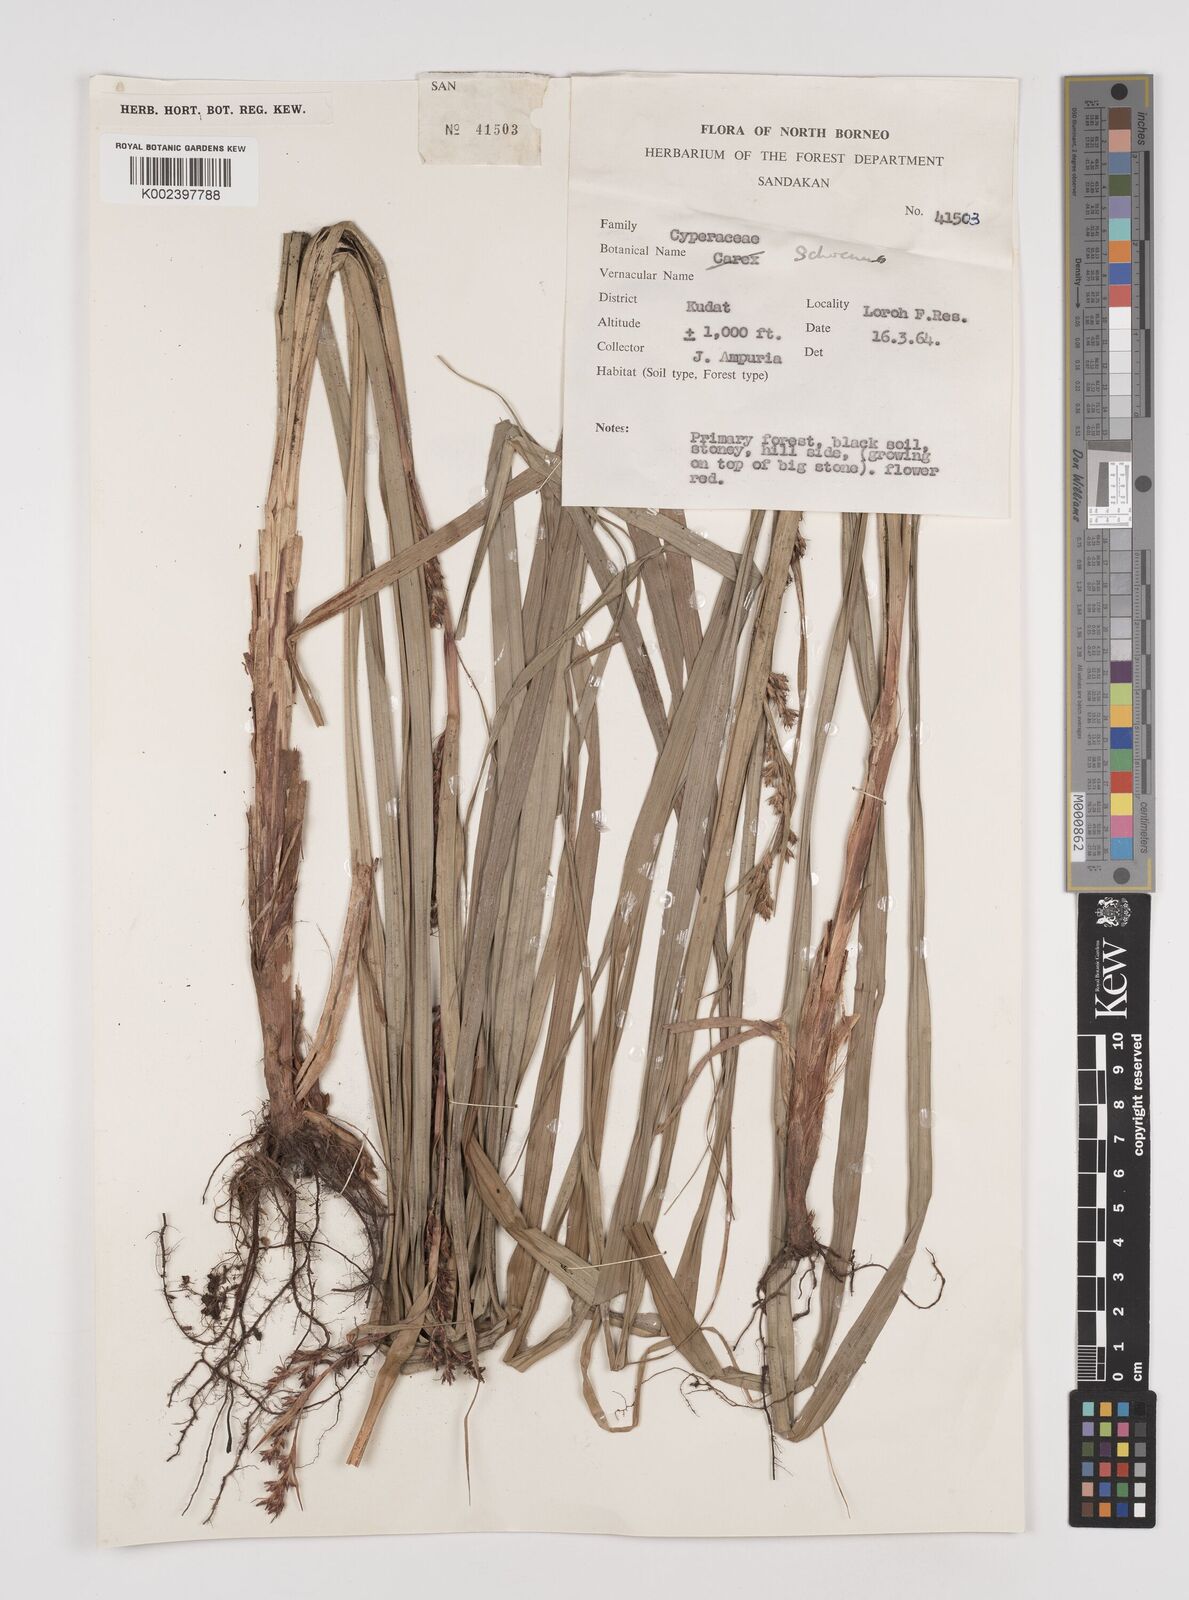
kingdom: Plantae
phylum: Tracheophyta
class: Liliopsida
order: Poales
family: Cyperaceae
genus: Schoenus
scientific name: Schoenus
